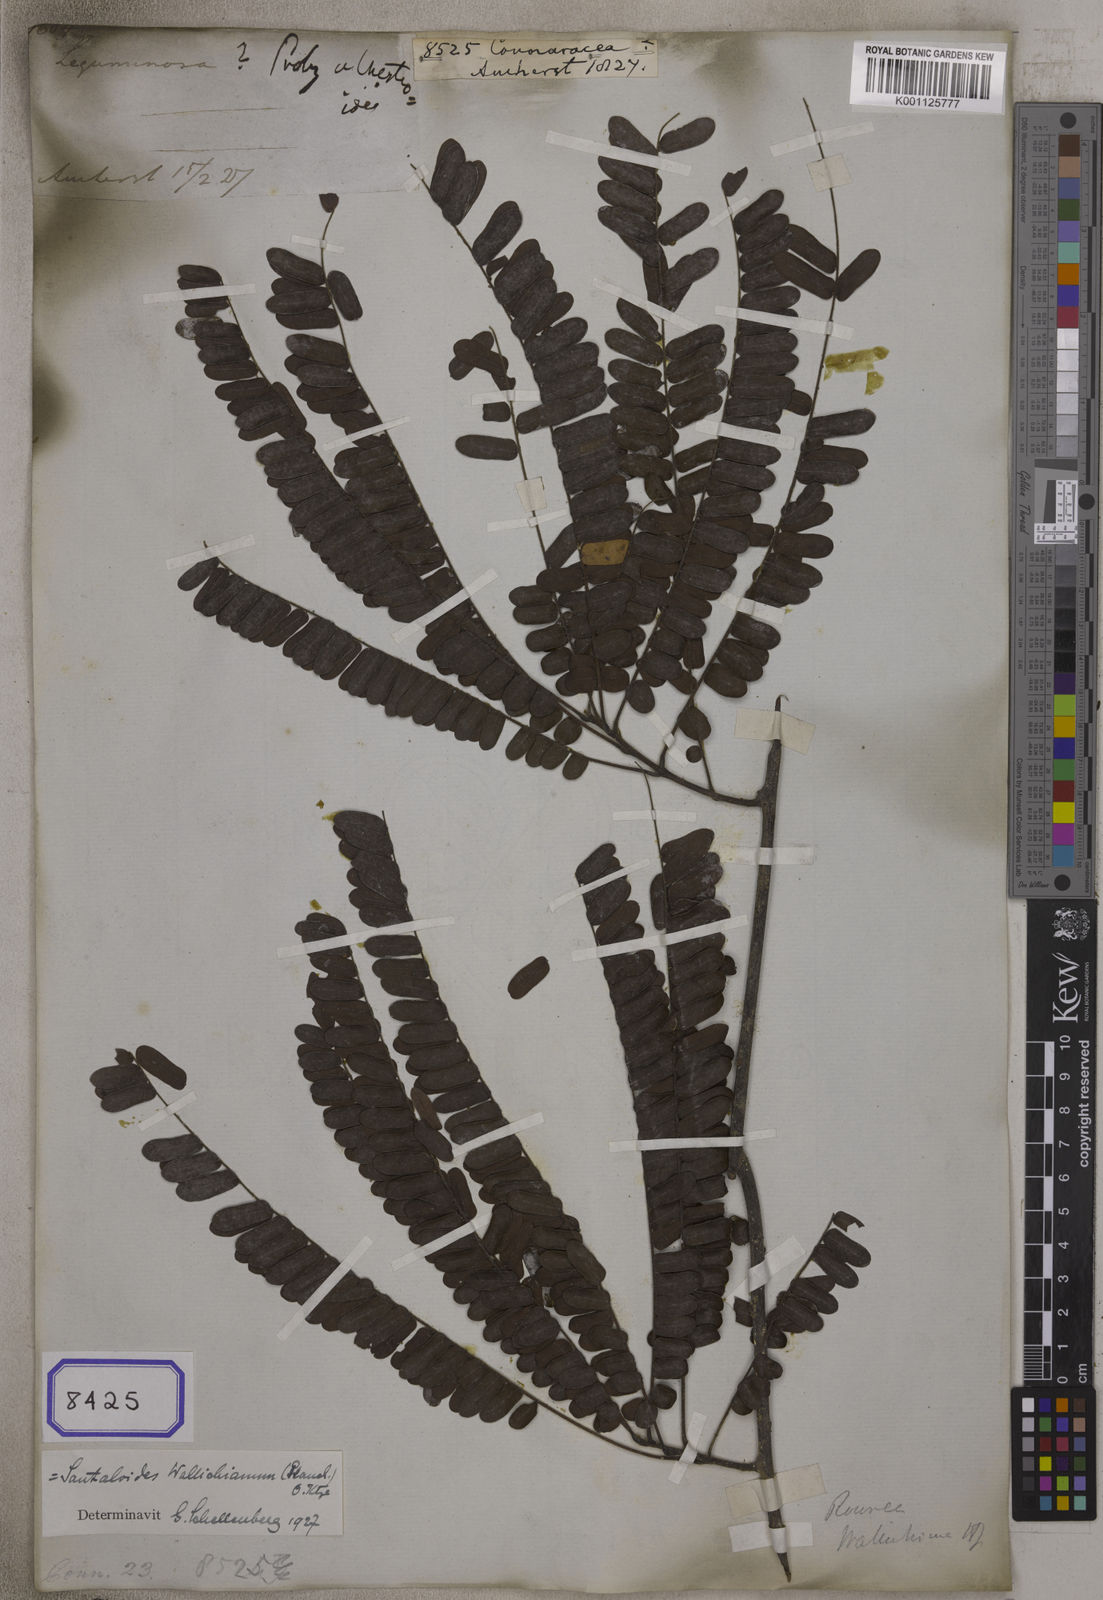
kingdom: Plantae
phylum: Tracheophyta
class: Magnoliopsida
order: Oxalidales
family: Connaraceae
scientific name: Connaraceae
